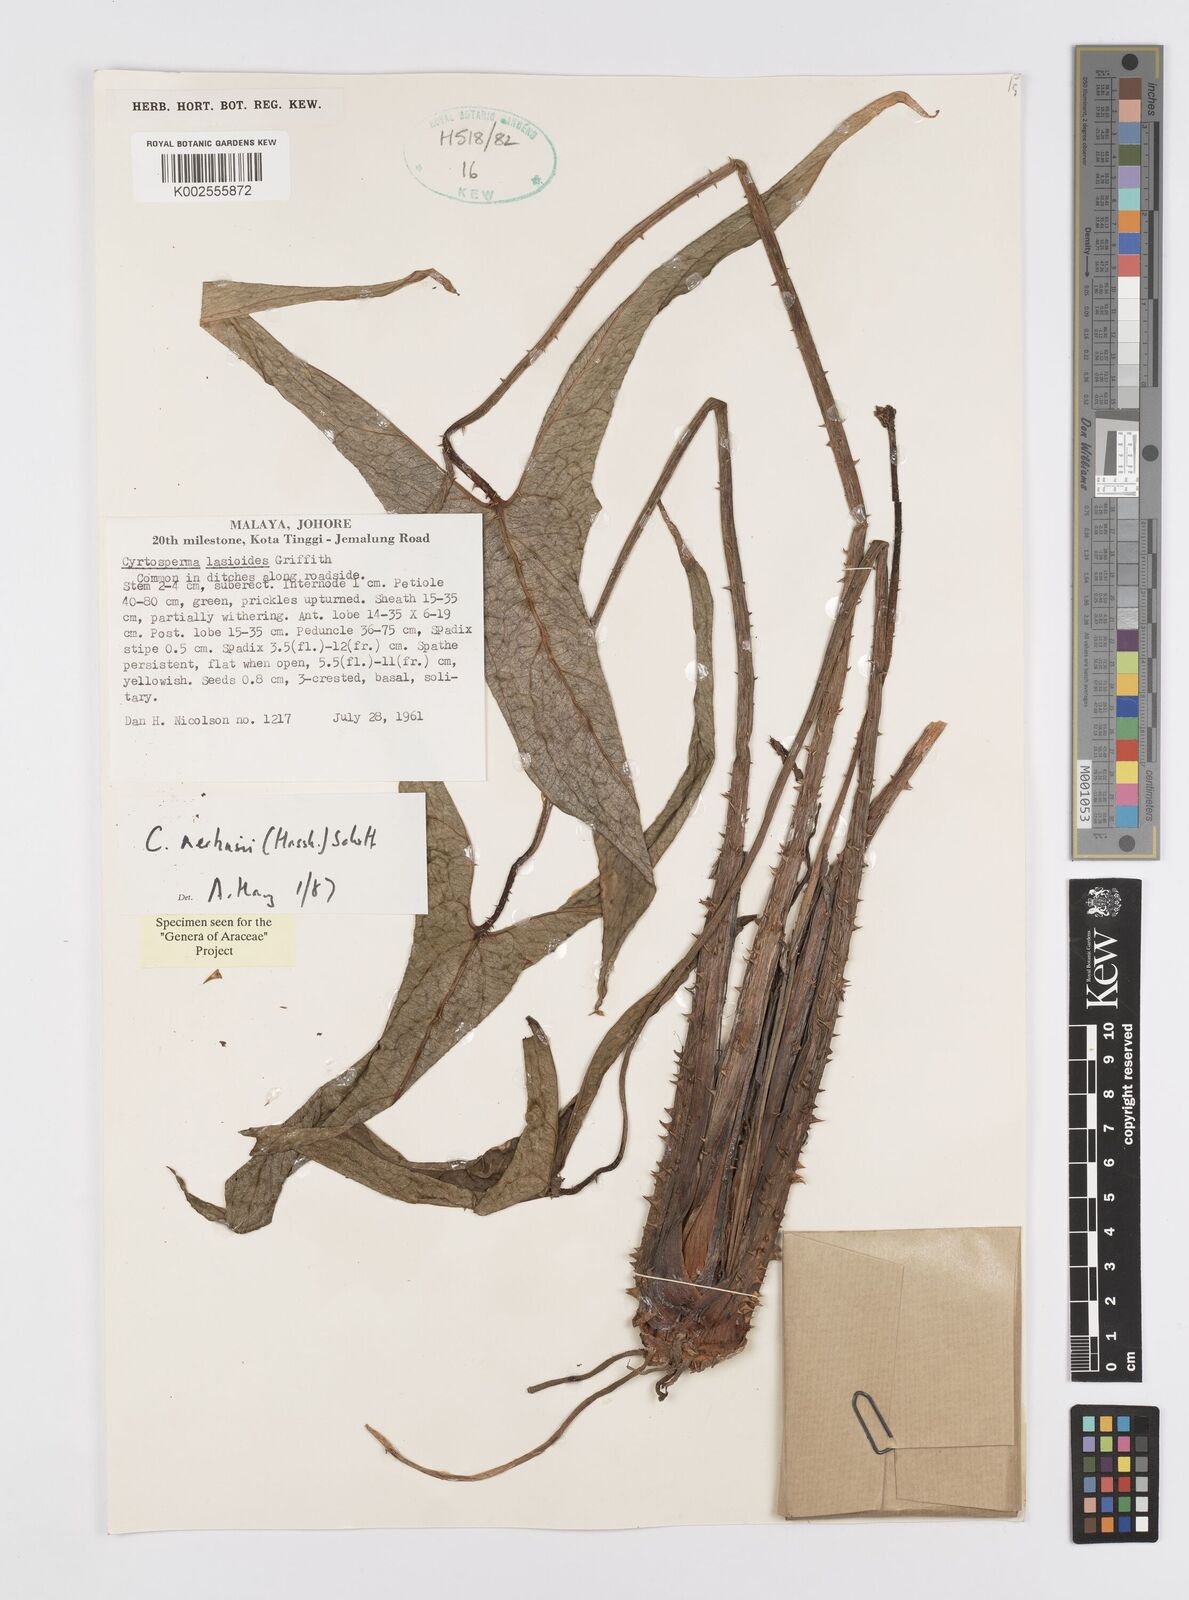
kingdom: Plantae
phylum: Tracheophyta
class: Liliopsida
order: Alismatales
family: Araceae
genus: Cyrtosperma
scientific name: Cyrtosperma merkusii
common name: Giant swamp-taro
